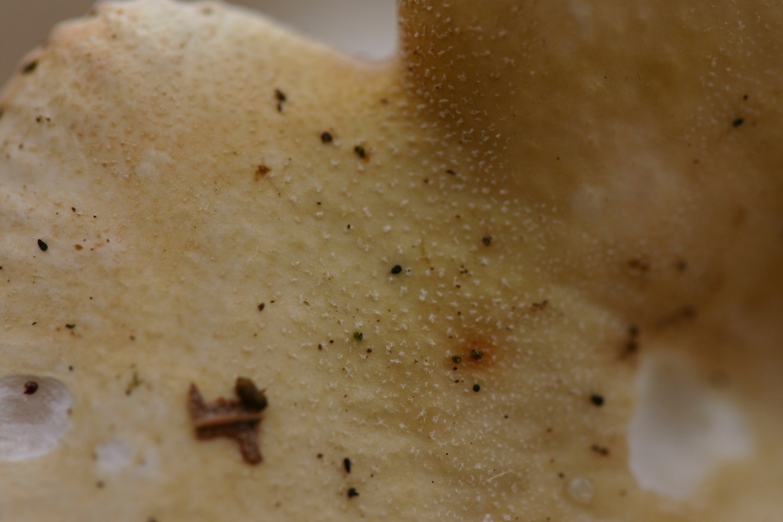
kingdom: Fungi
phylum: Basidiomycota
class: Agaricomycetes
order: Russulales
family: Russulaceae
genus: Russula
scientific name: Russula roseoaurantia
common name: kornet skørhat
